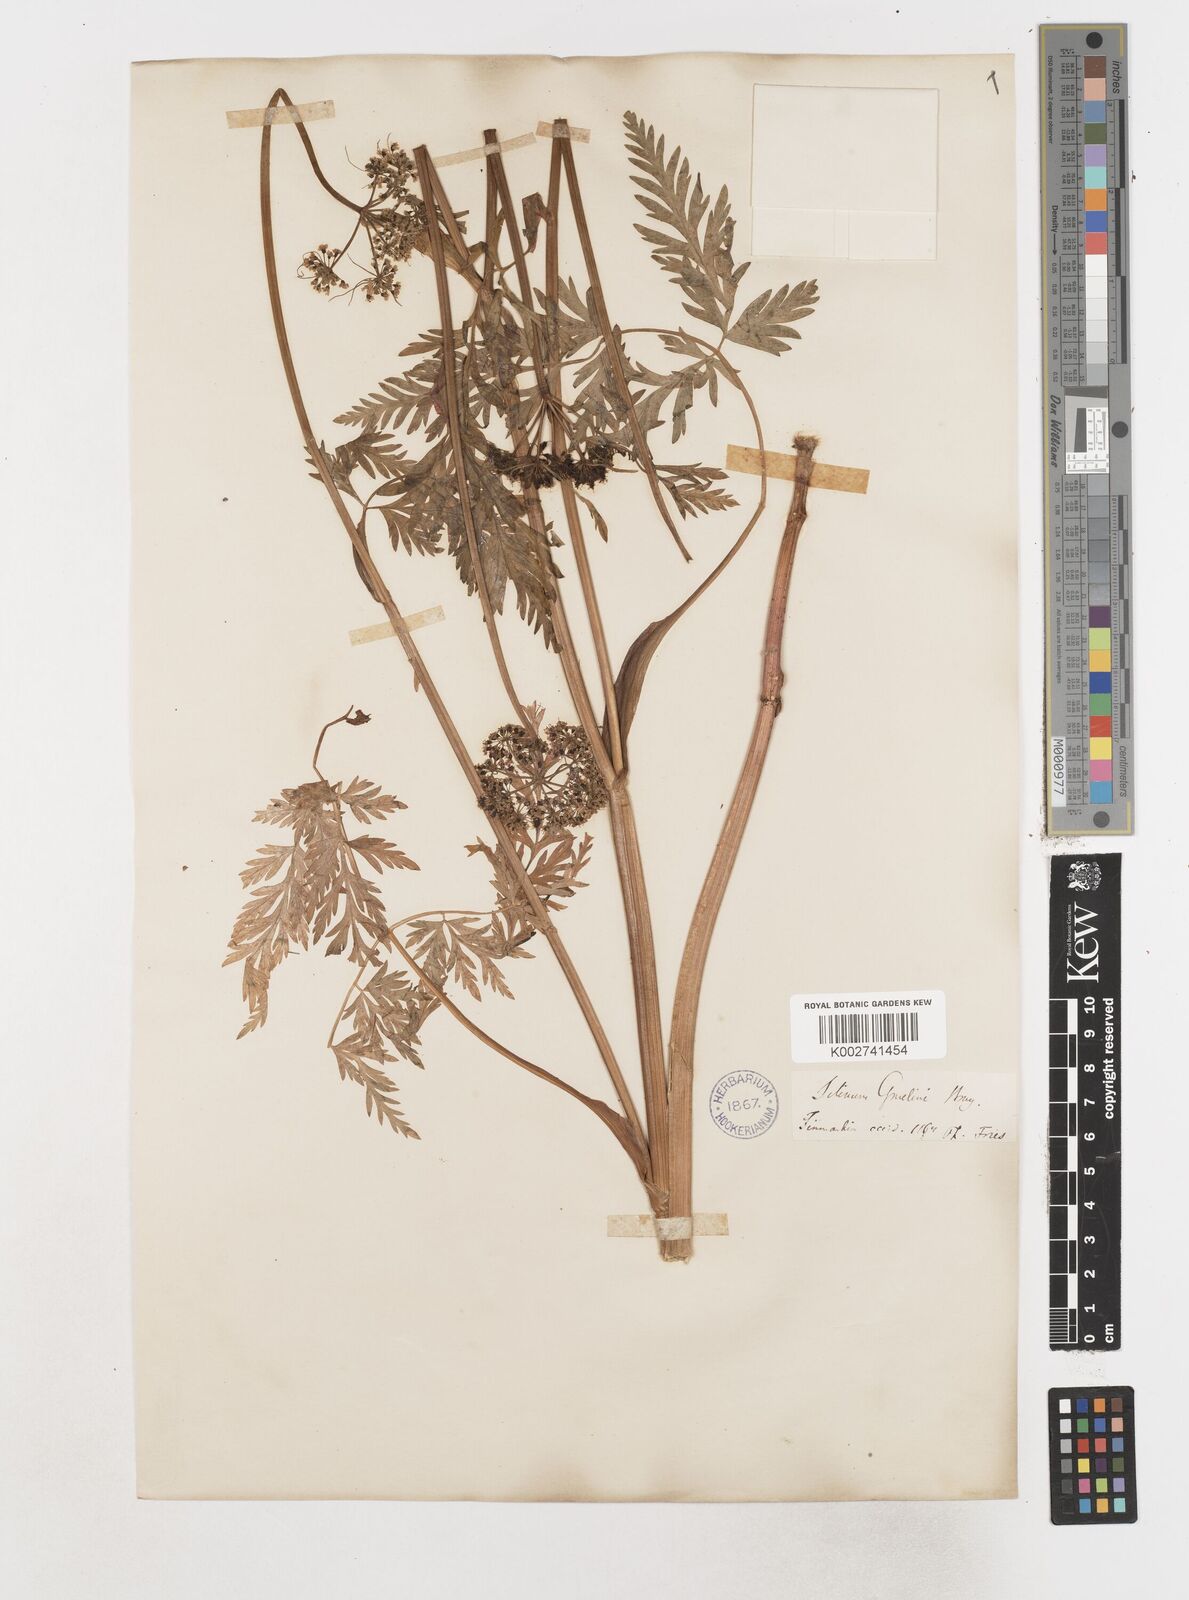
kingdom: Plantae
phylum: Tracheophyta
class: Magnoliopsida
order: Apiales
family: Apiaceae
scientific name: Apiaceae
